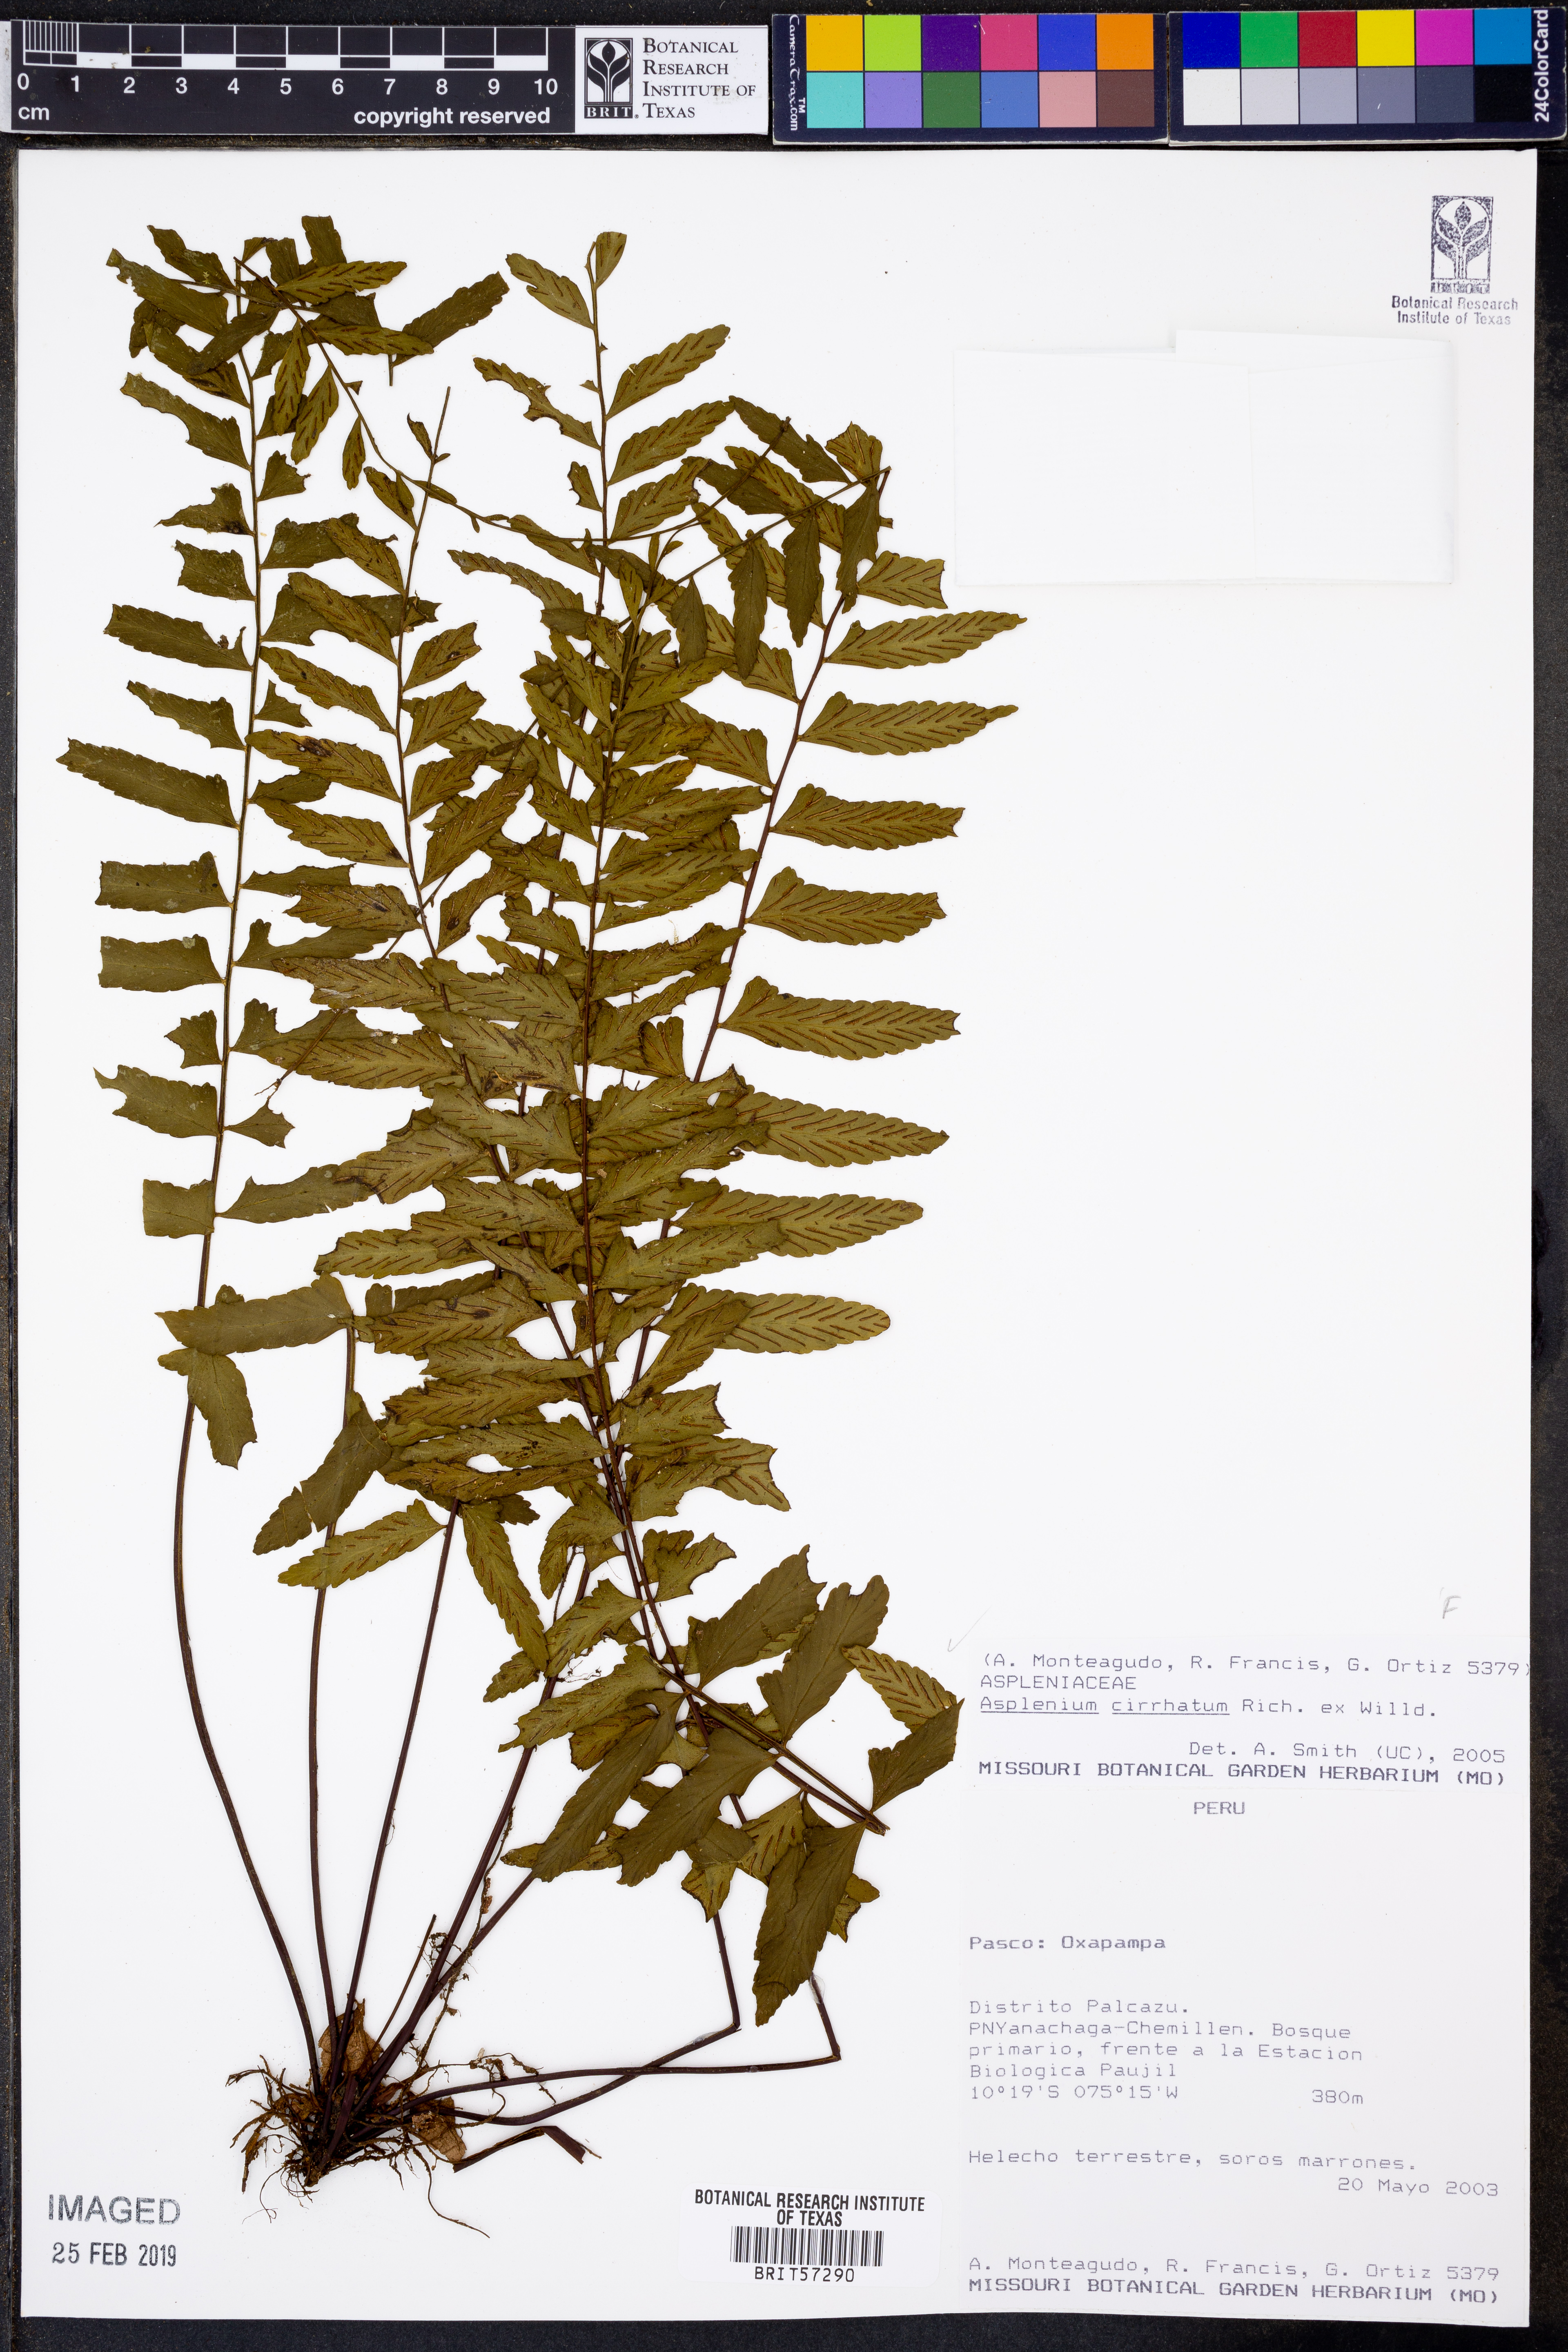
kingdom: Plantae
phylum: Tracheophyta
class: Polypodiopsida
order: Polypodiales
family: Aspleniaceae
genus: Asplenium
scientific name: Asplenium cirrhatum
